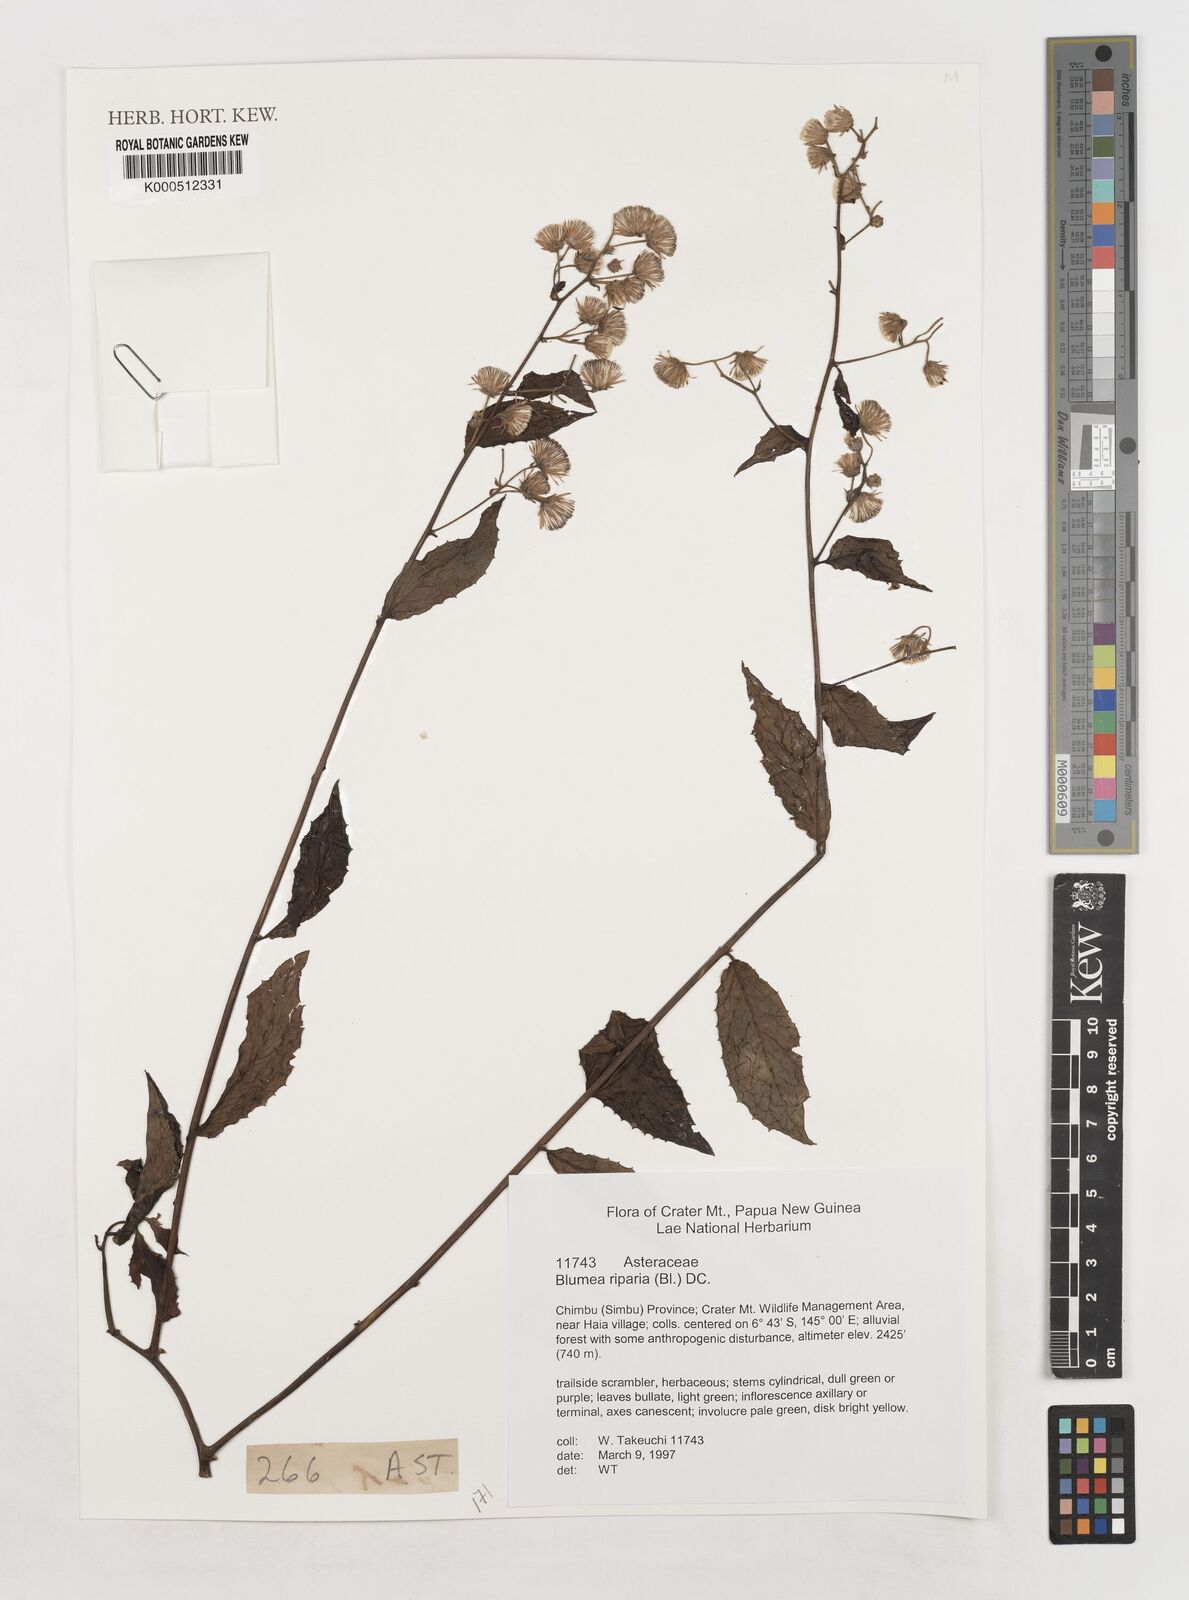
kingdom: Plantae
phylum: Tracheophyta
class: Magnoliopsida
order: Asterales
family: Asteraceae
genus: Blumea
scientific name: Blumea riparia
